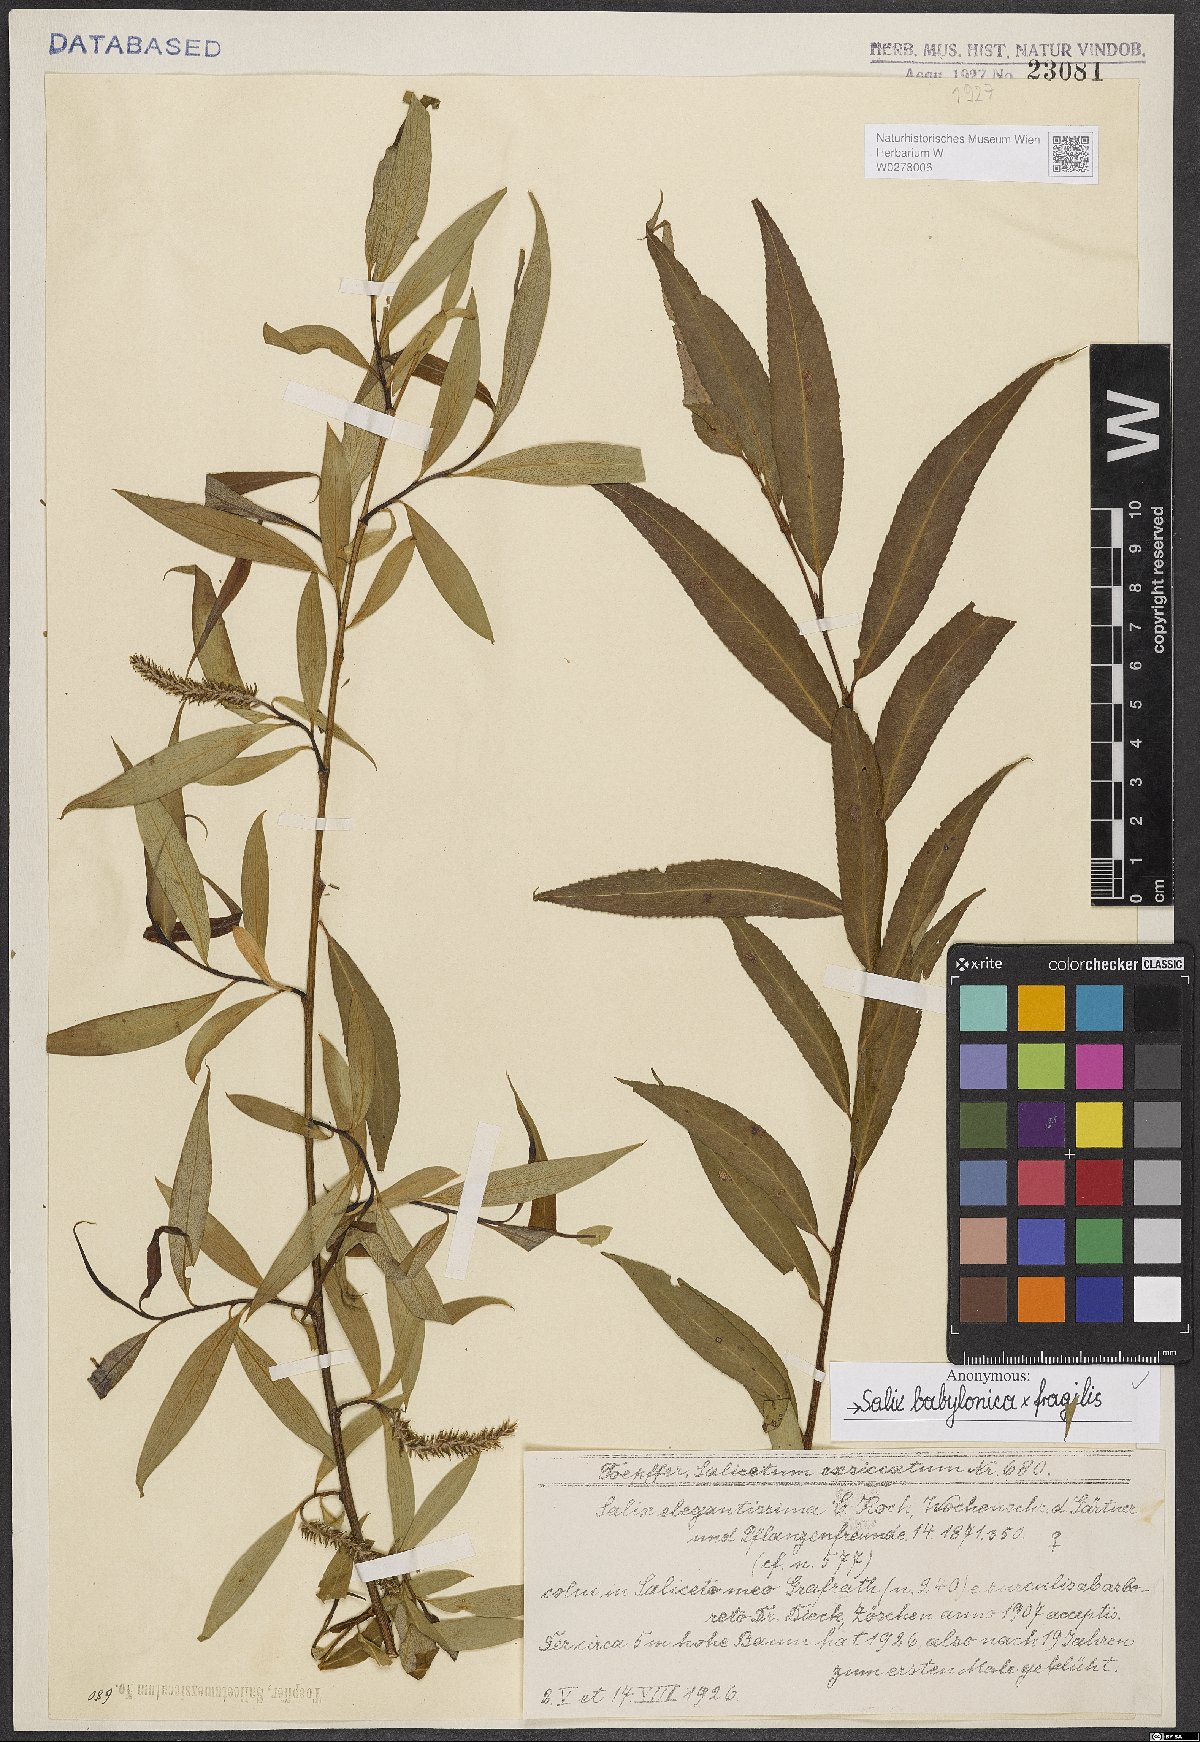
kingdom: Plantae
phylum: Tracheophyta
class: Magnoliopsida
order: Malpighiales
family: Salicaceae
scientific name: Salicaceae
